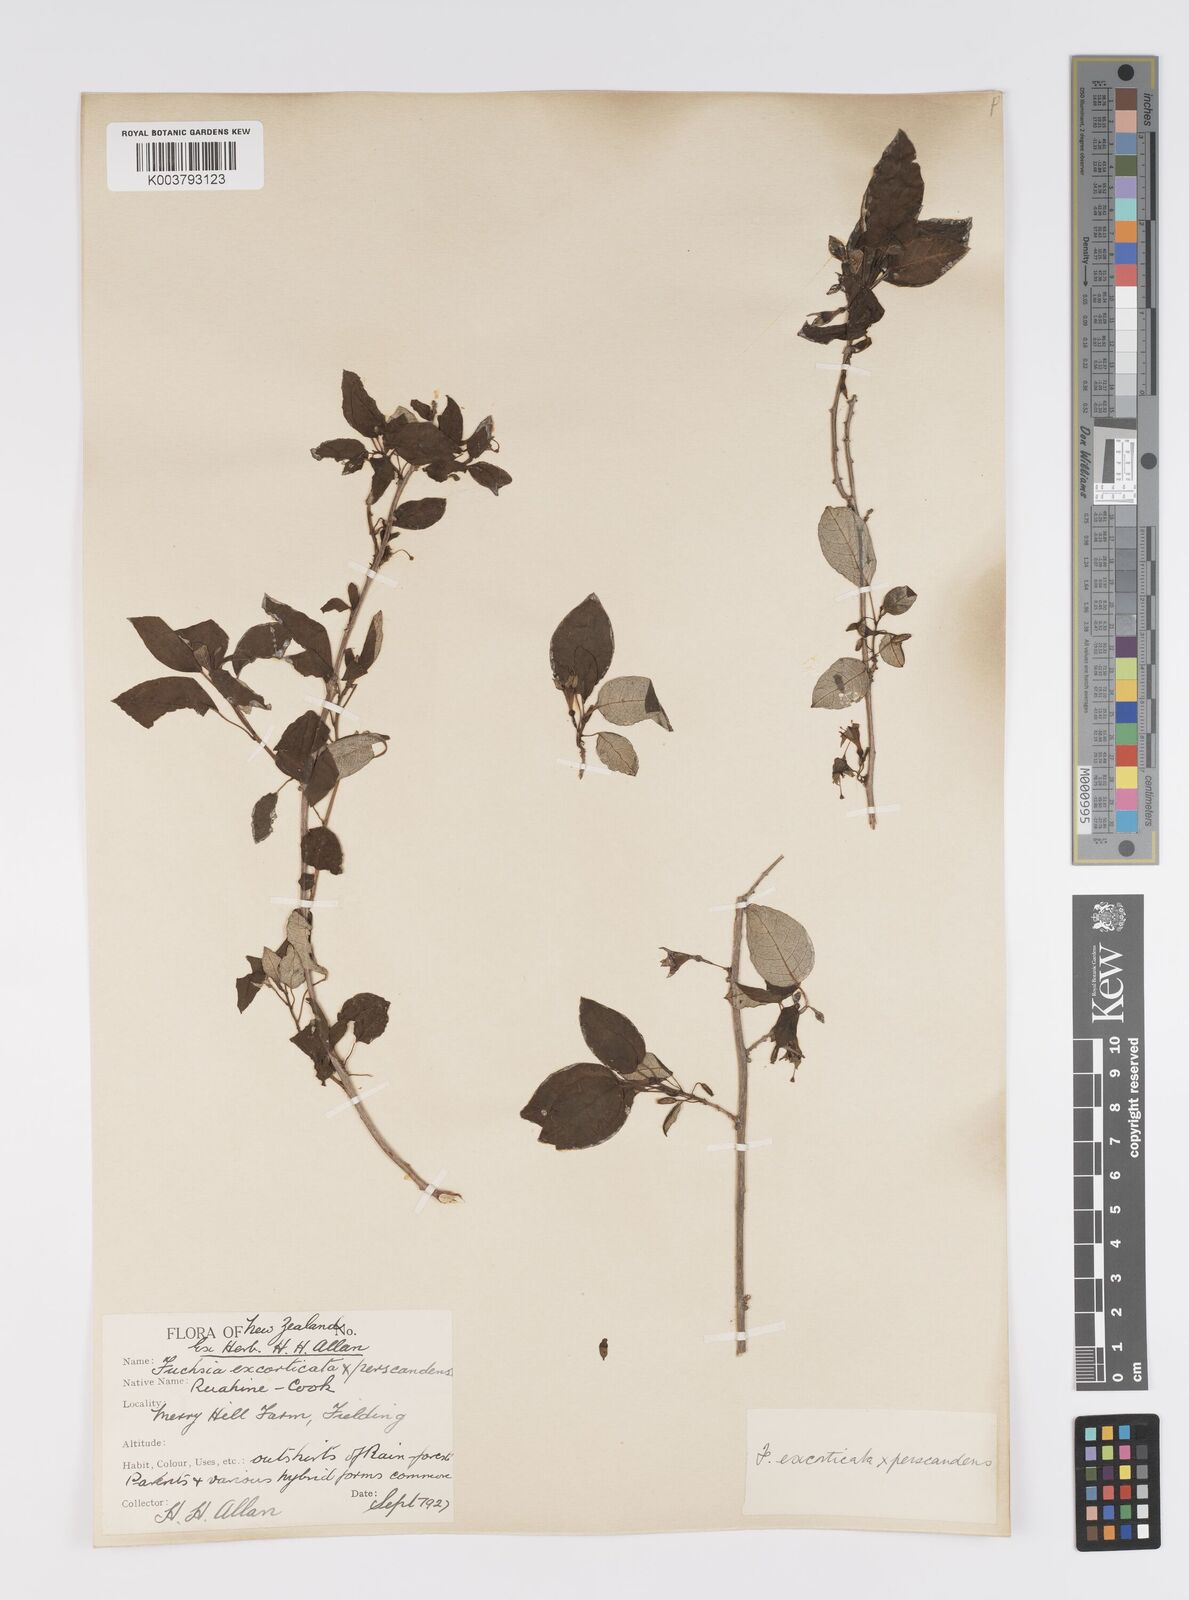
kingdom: Plantae
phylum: Tracheophyta
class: Magnoliopsida
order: Myrtales
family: Onagraceae
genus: Fuchsia
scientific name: Fuchsia excorticata
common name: Tree fuchsia
